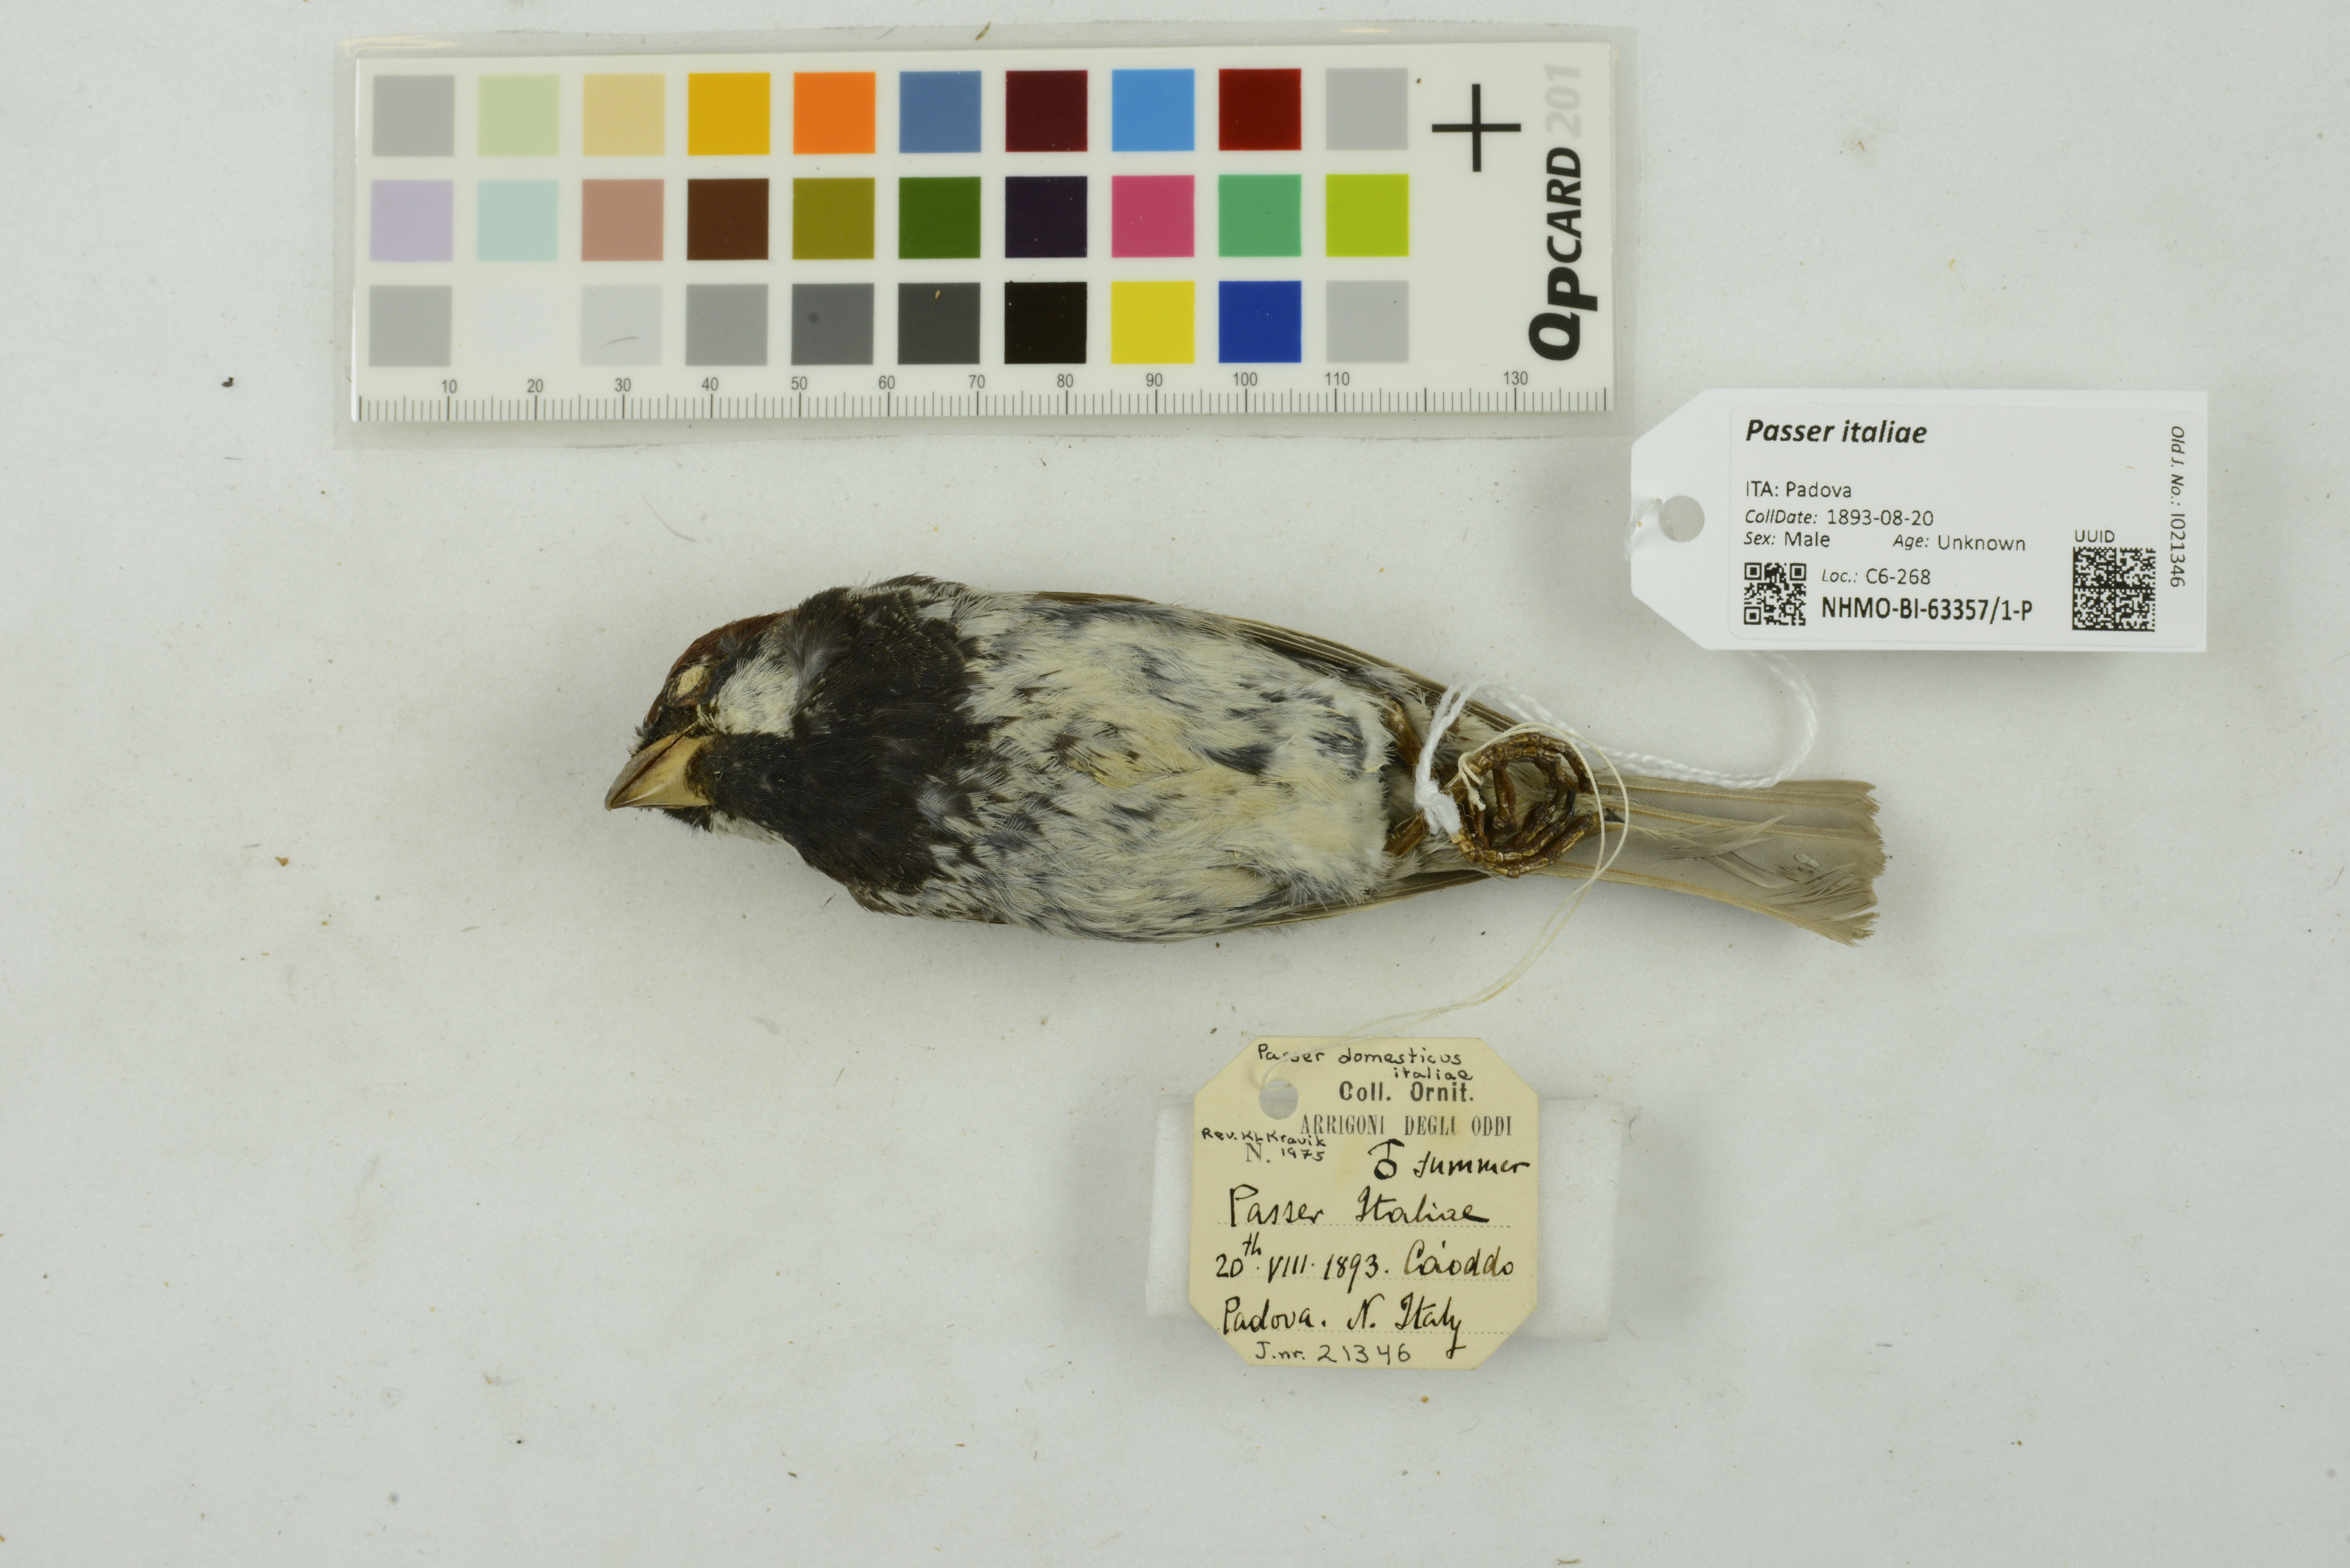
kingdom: Animalia
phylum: Chordata
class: Aves
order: Passeriformes
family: Passeridae
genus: Passer
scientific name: Passer italiae
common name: Italian sparrow
